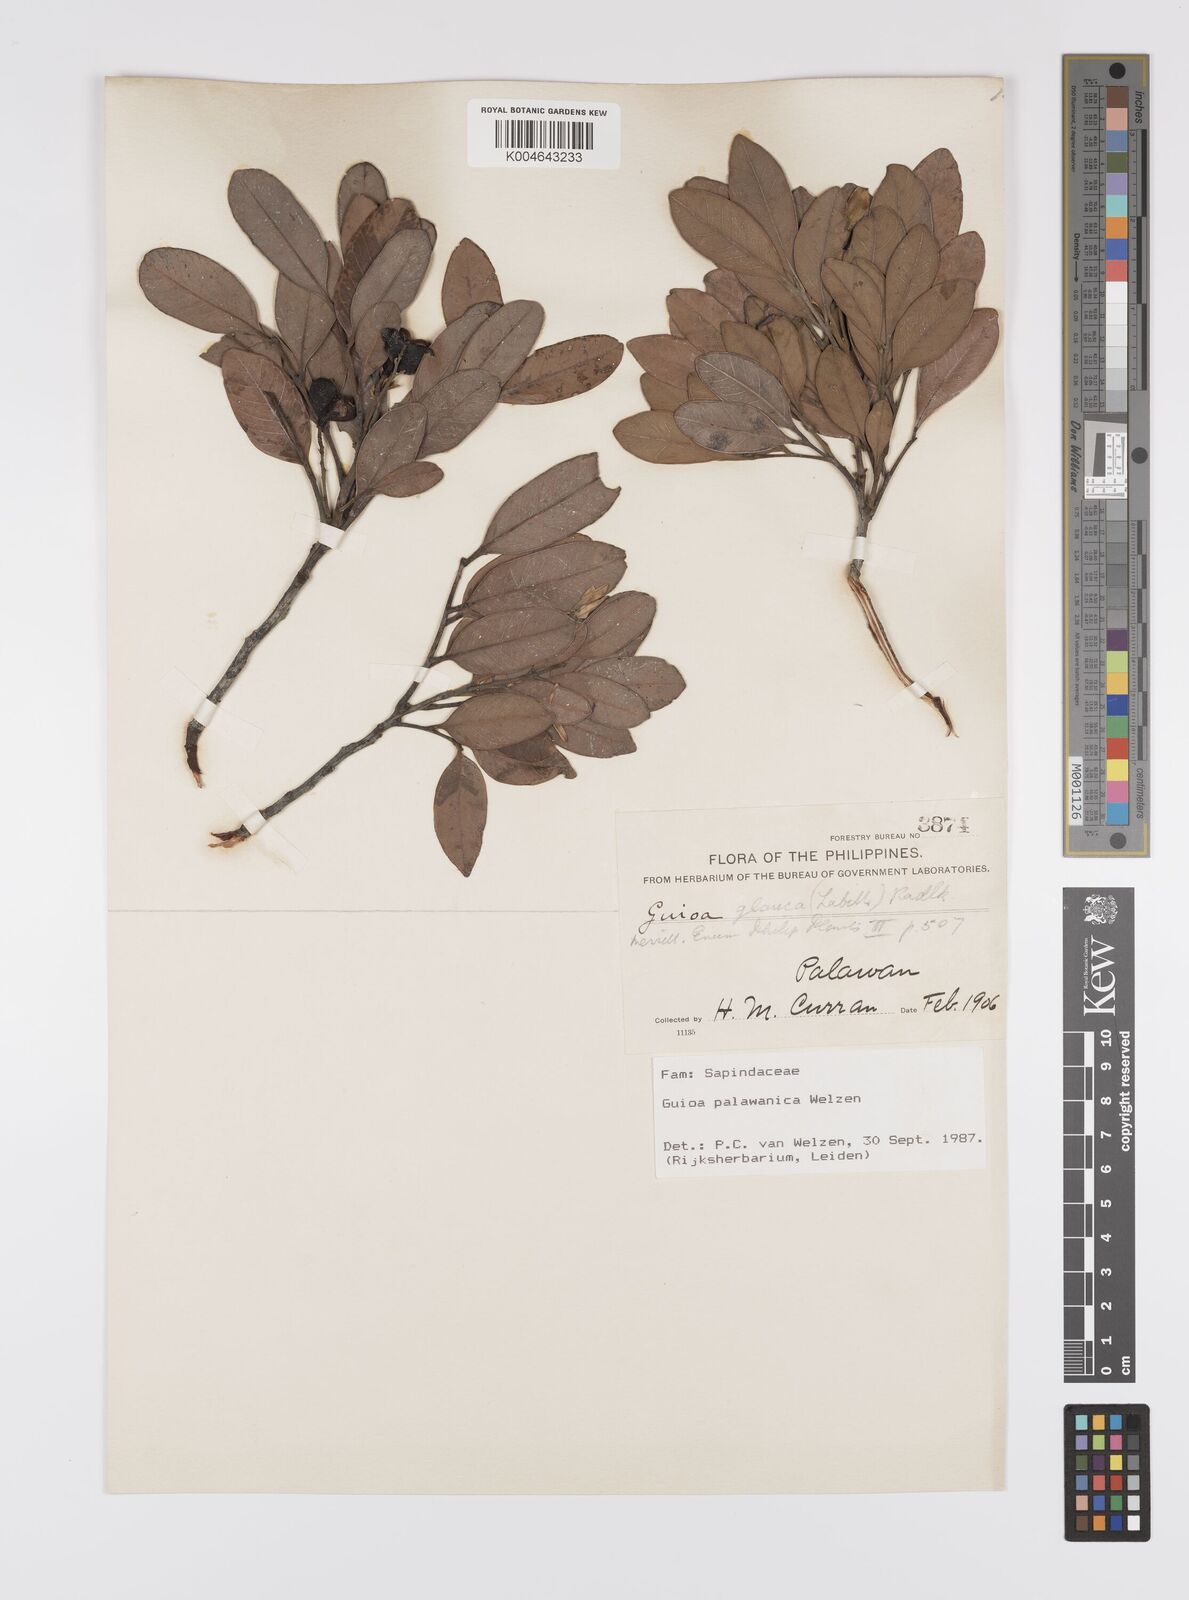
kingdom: Plantae
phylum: Tracheophyta
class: Magnoliopsida
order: Sapindales
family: Sapindaceae
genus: Guioa
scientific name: Guioa palawanica
